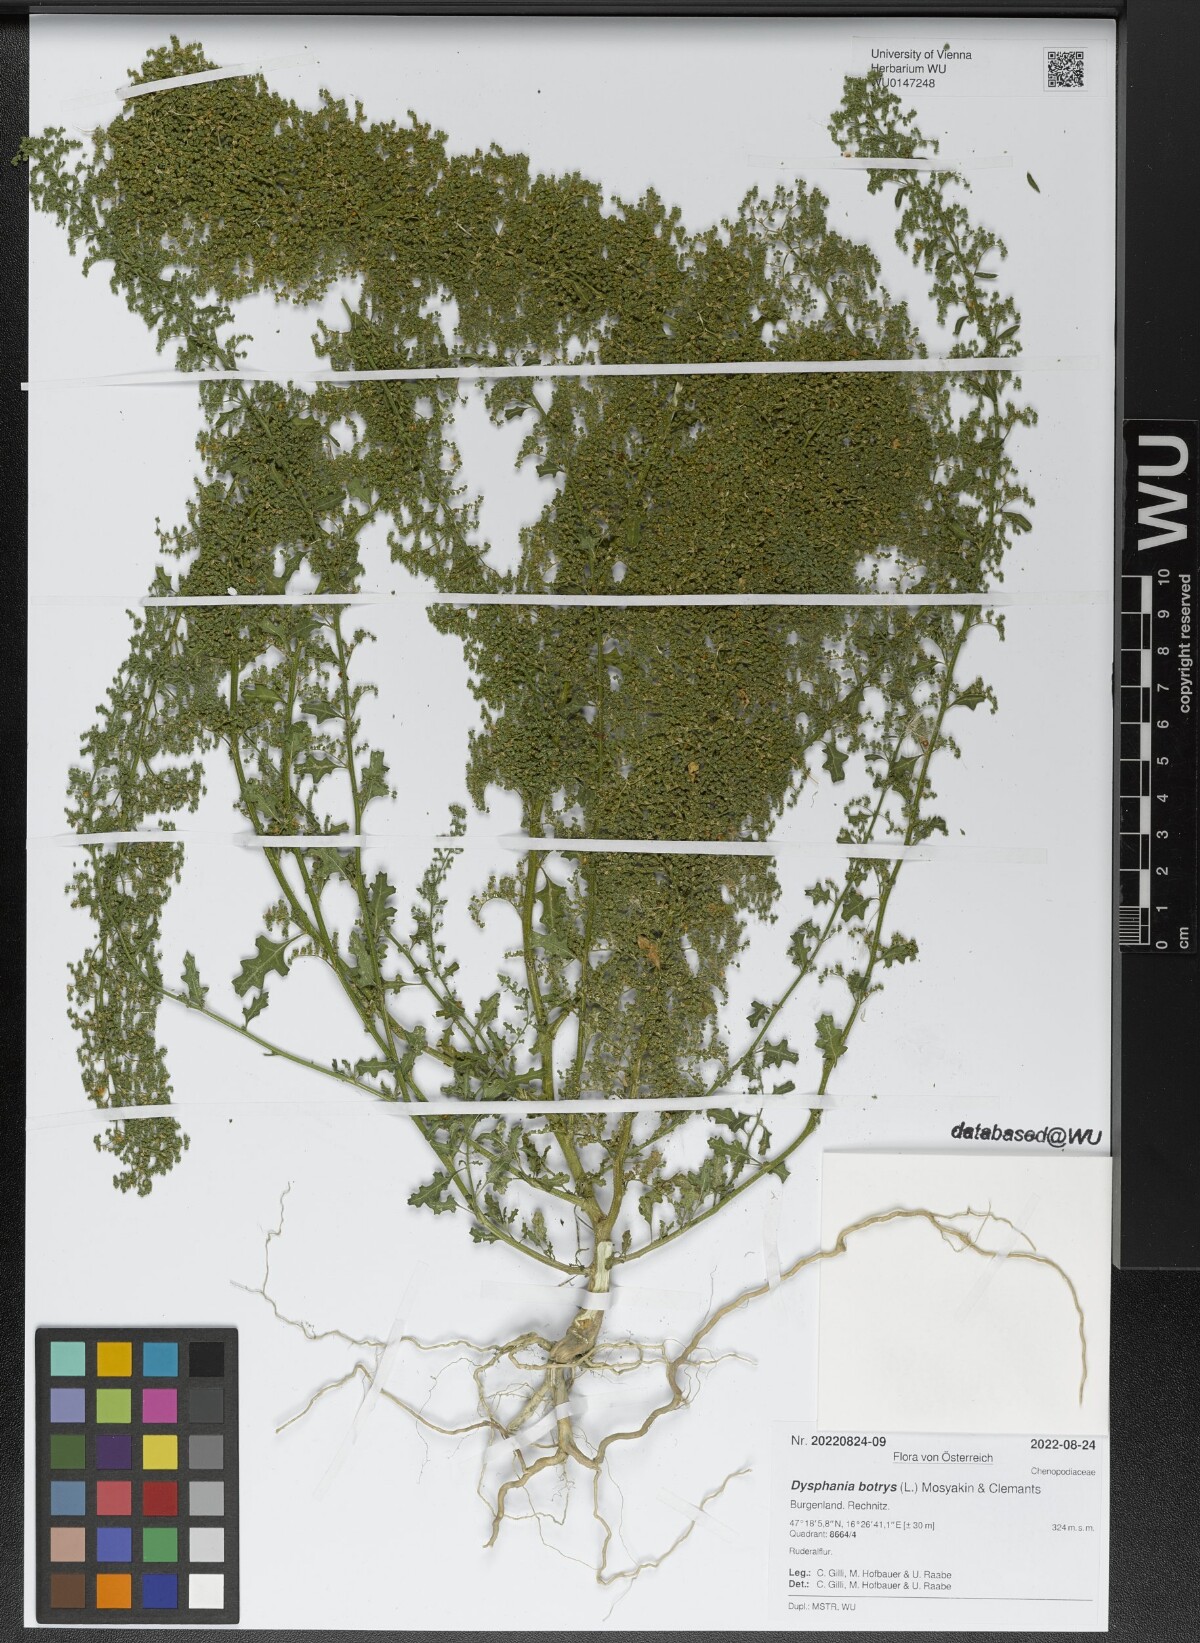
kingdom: Plantae
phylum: Tracheophyta
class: Magnoliopsida
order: Caryophyllales
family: Amaranthaceae
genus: Dysphania
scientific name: Dysphania botrys
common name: Feather-geranium
